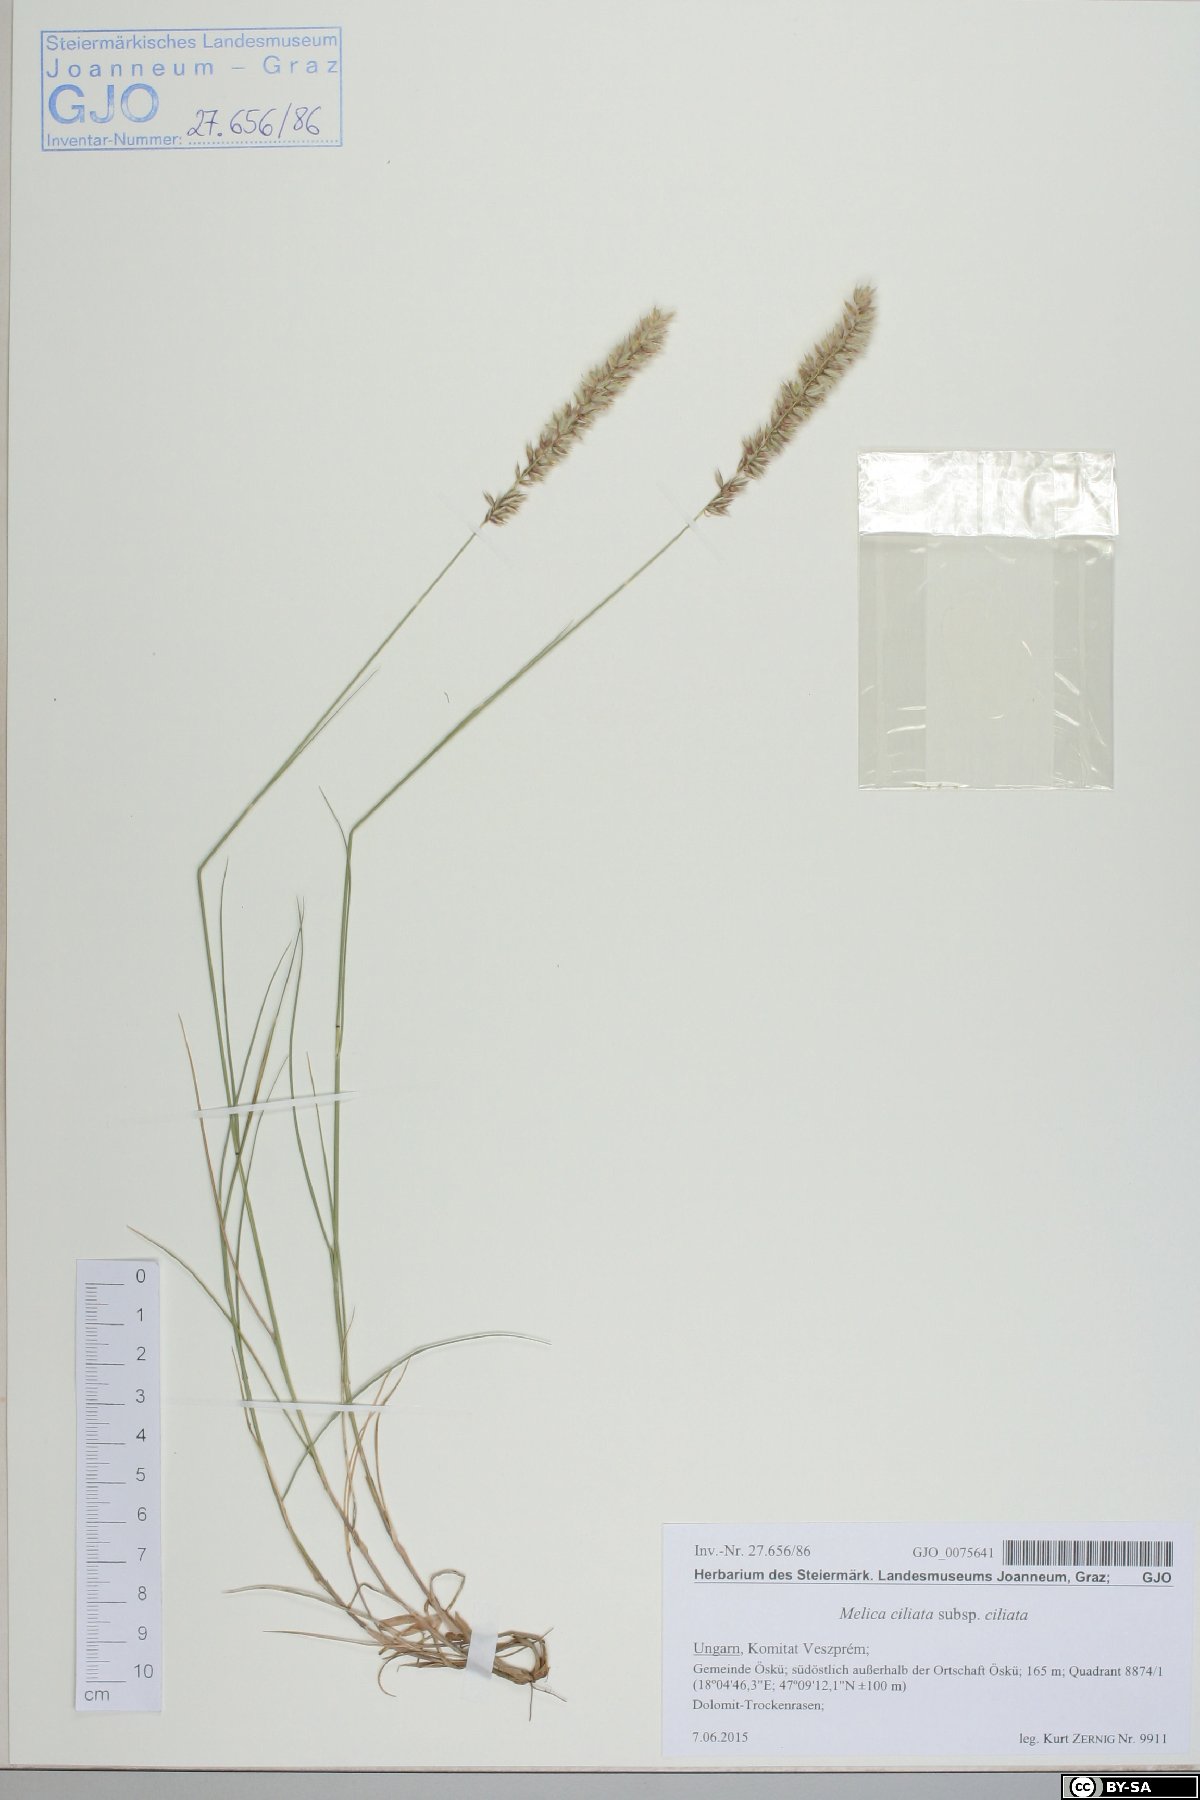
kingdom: Plantae
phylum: Tracheophyta
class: Liliopsida
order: Poales
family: Poaceae
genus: Melica
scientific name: Melica ciliata
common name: Hairy melicgrass
